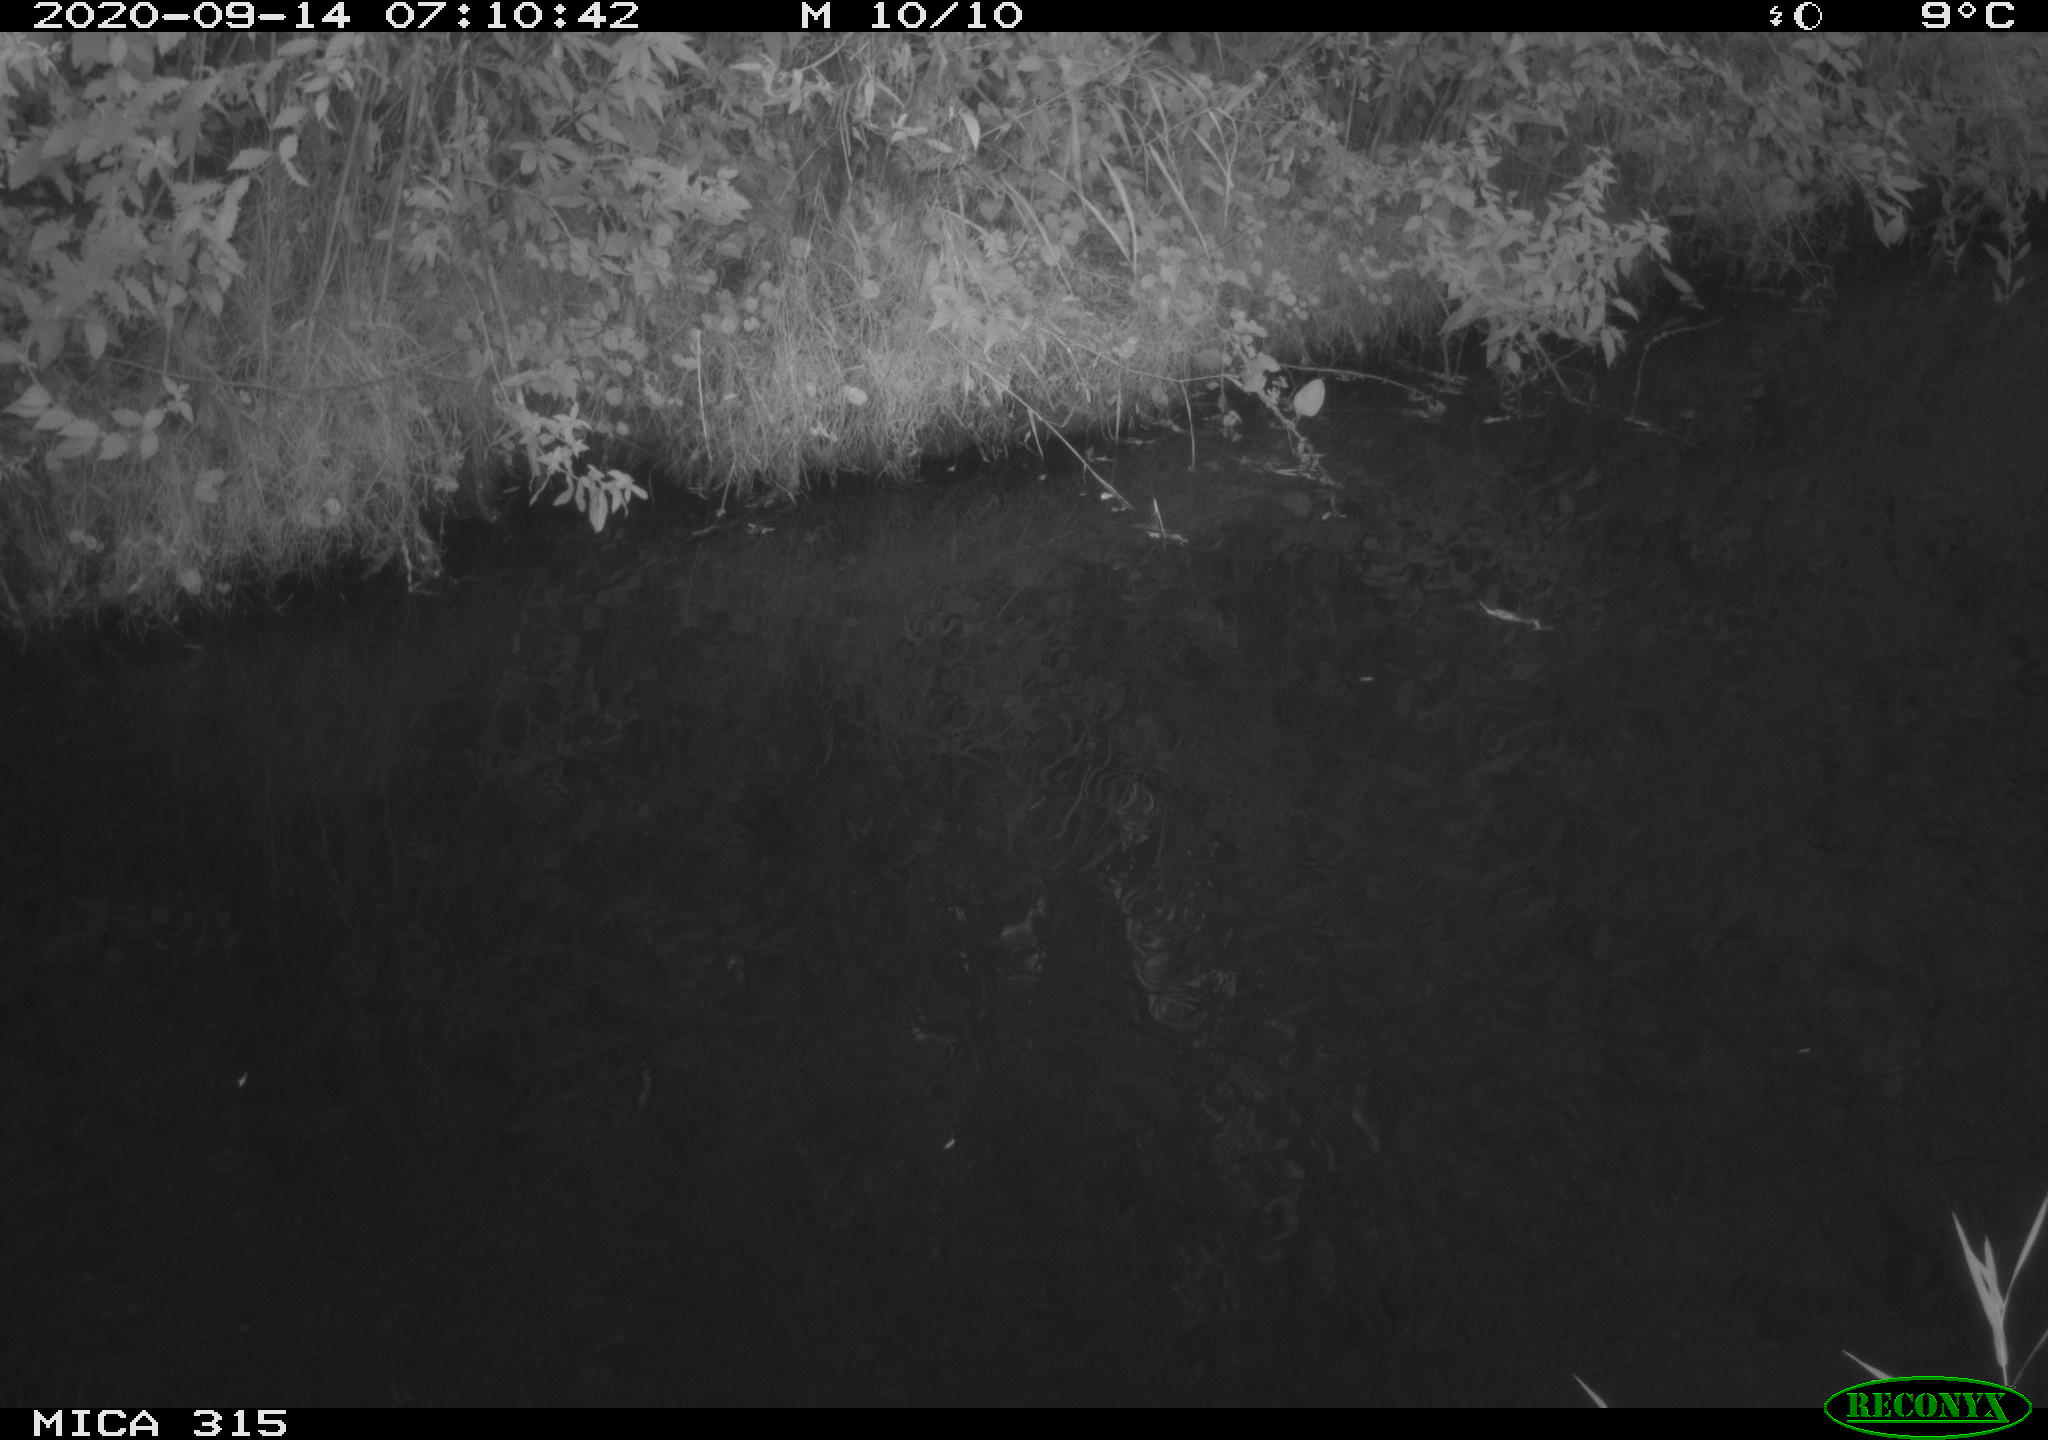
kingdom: Animalia
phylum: Chordata
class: Aves
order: Gruiformes
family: Rallidae
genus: Gallinula
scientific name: Gallinula chloropus
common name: Common moorhen
